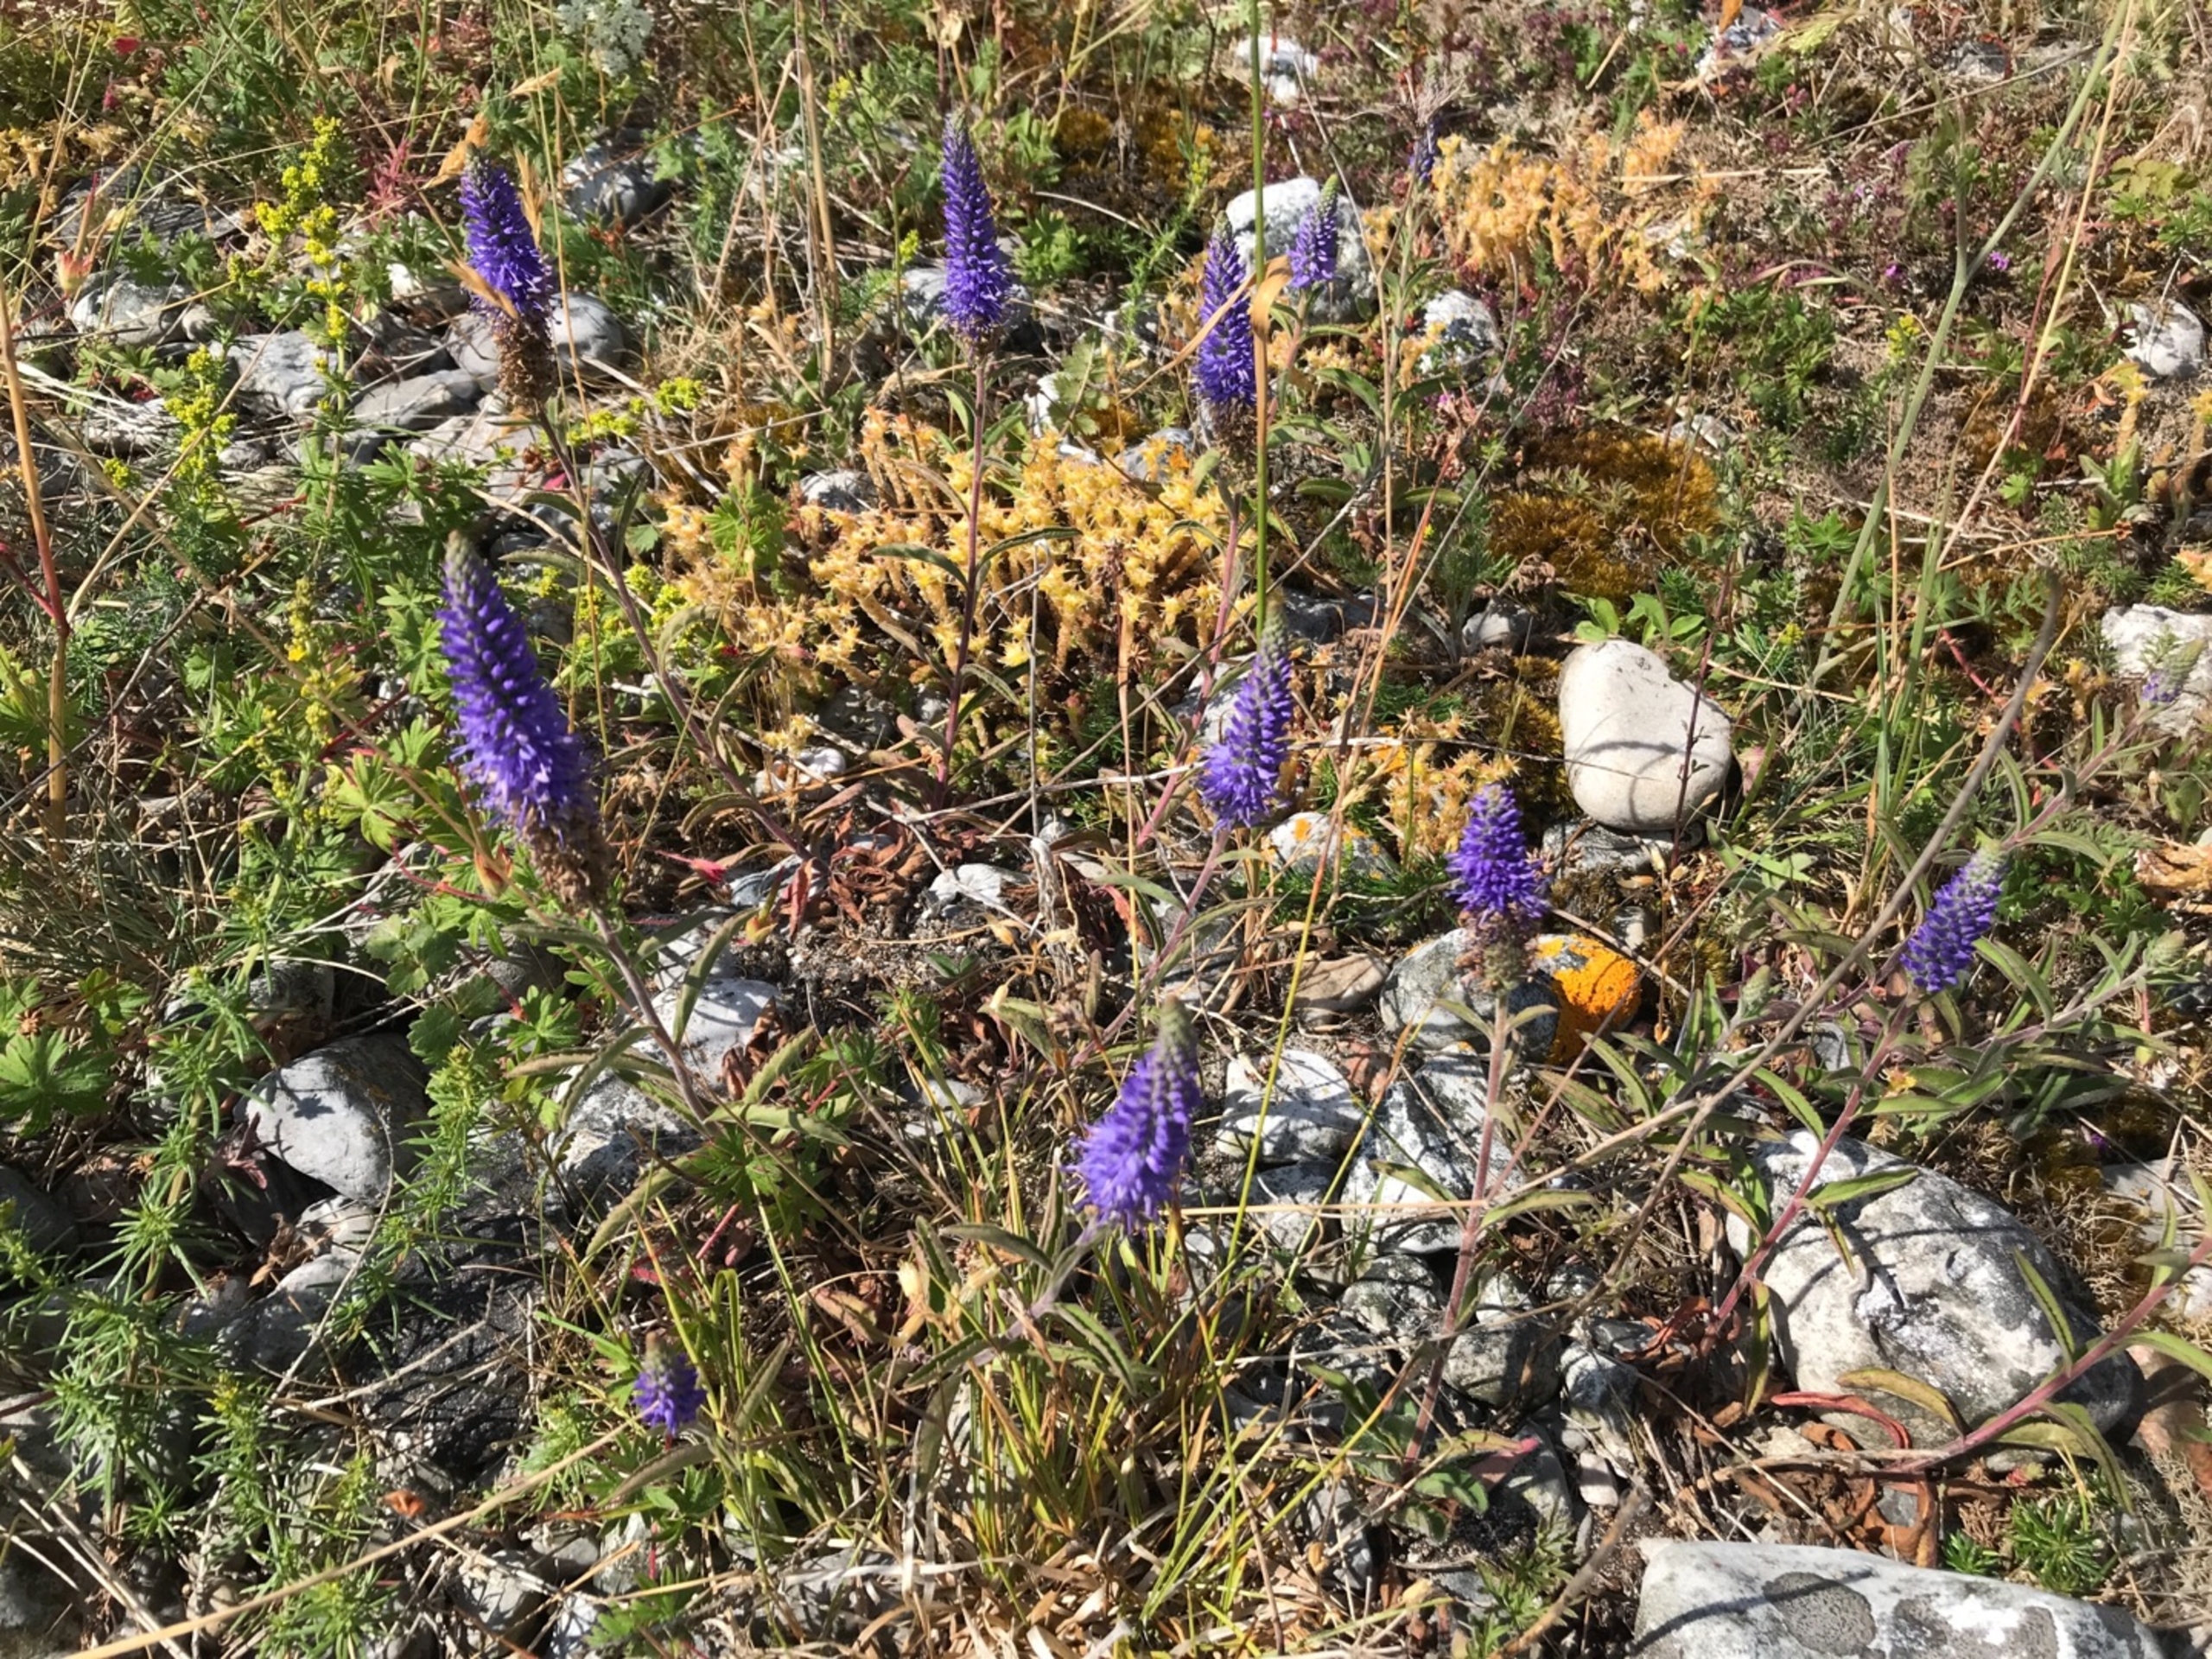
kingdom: Plantae
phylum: Tracheophyta
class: Magnoliopsida
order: Lamiales
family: Plantaginaceae
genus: Veronica
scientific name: Veronica spicata
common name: Aks-ærenpris
